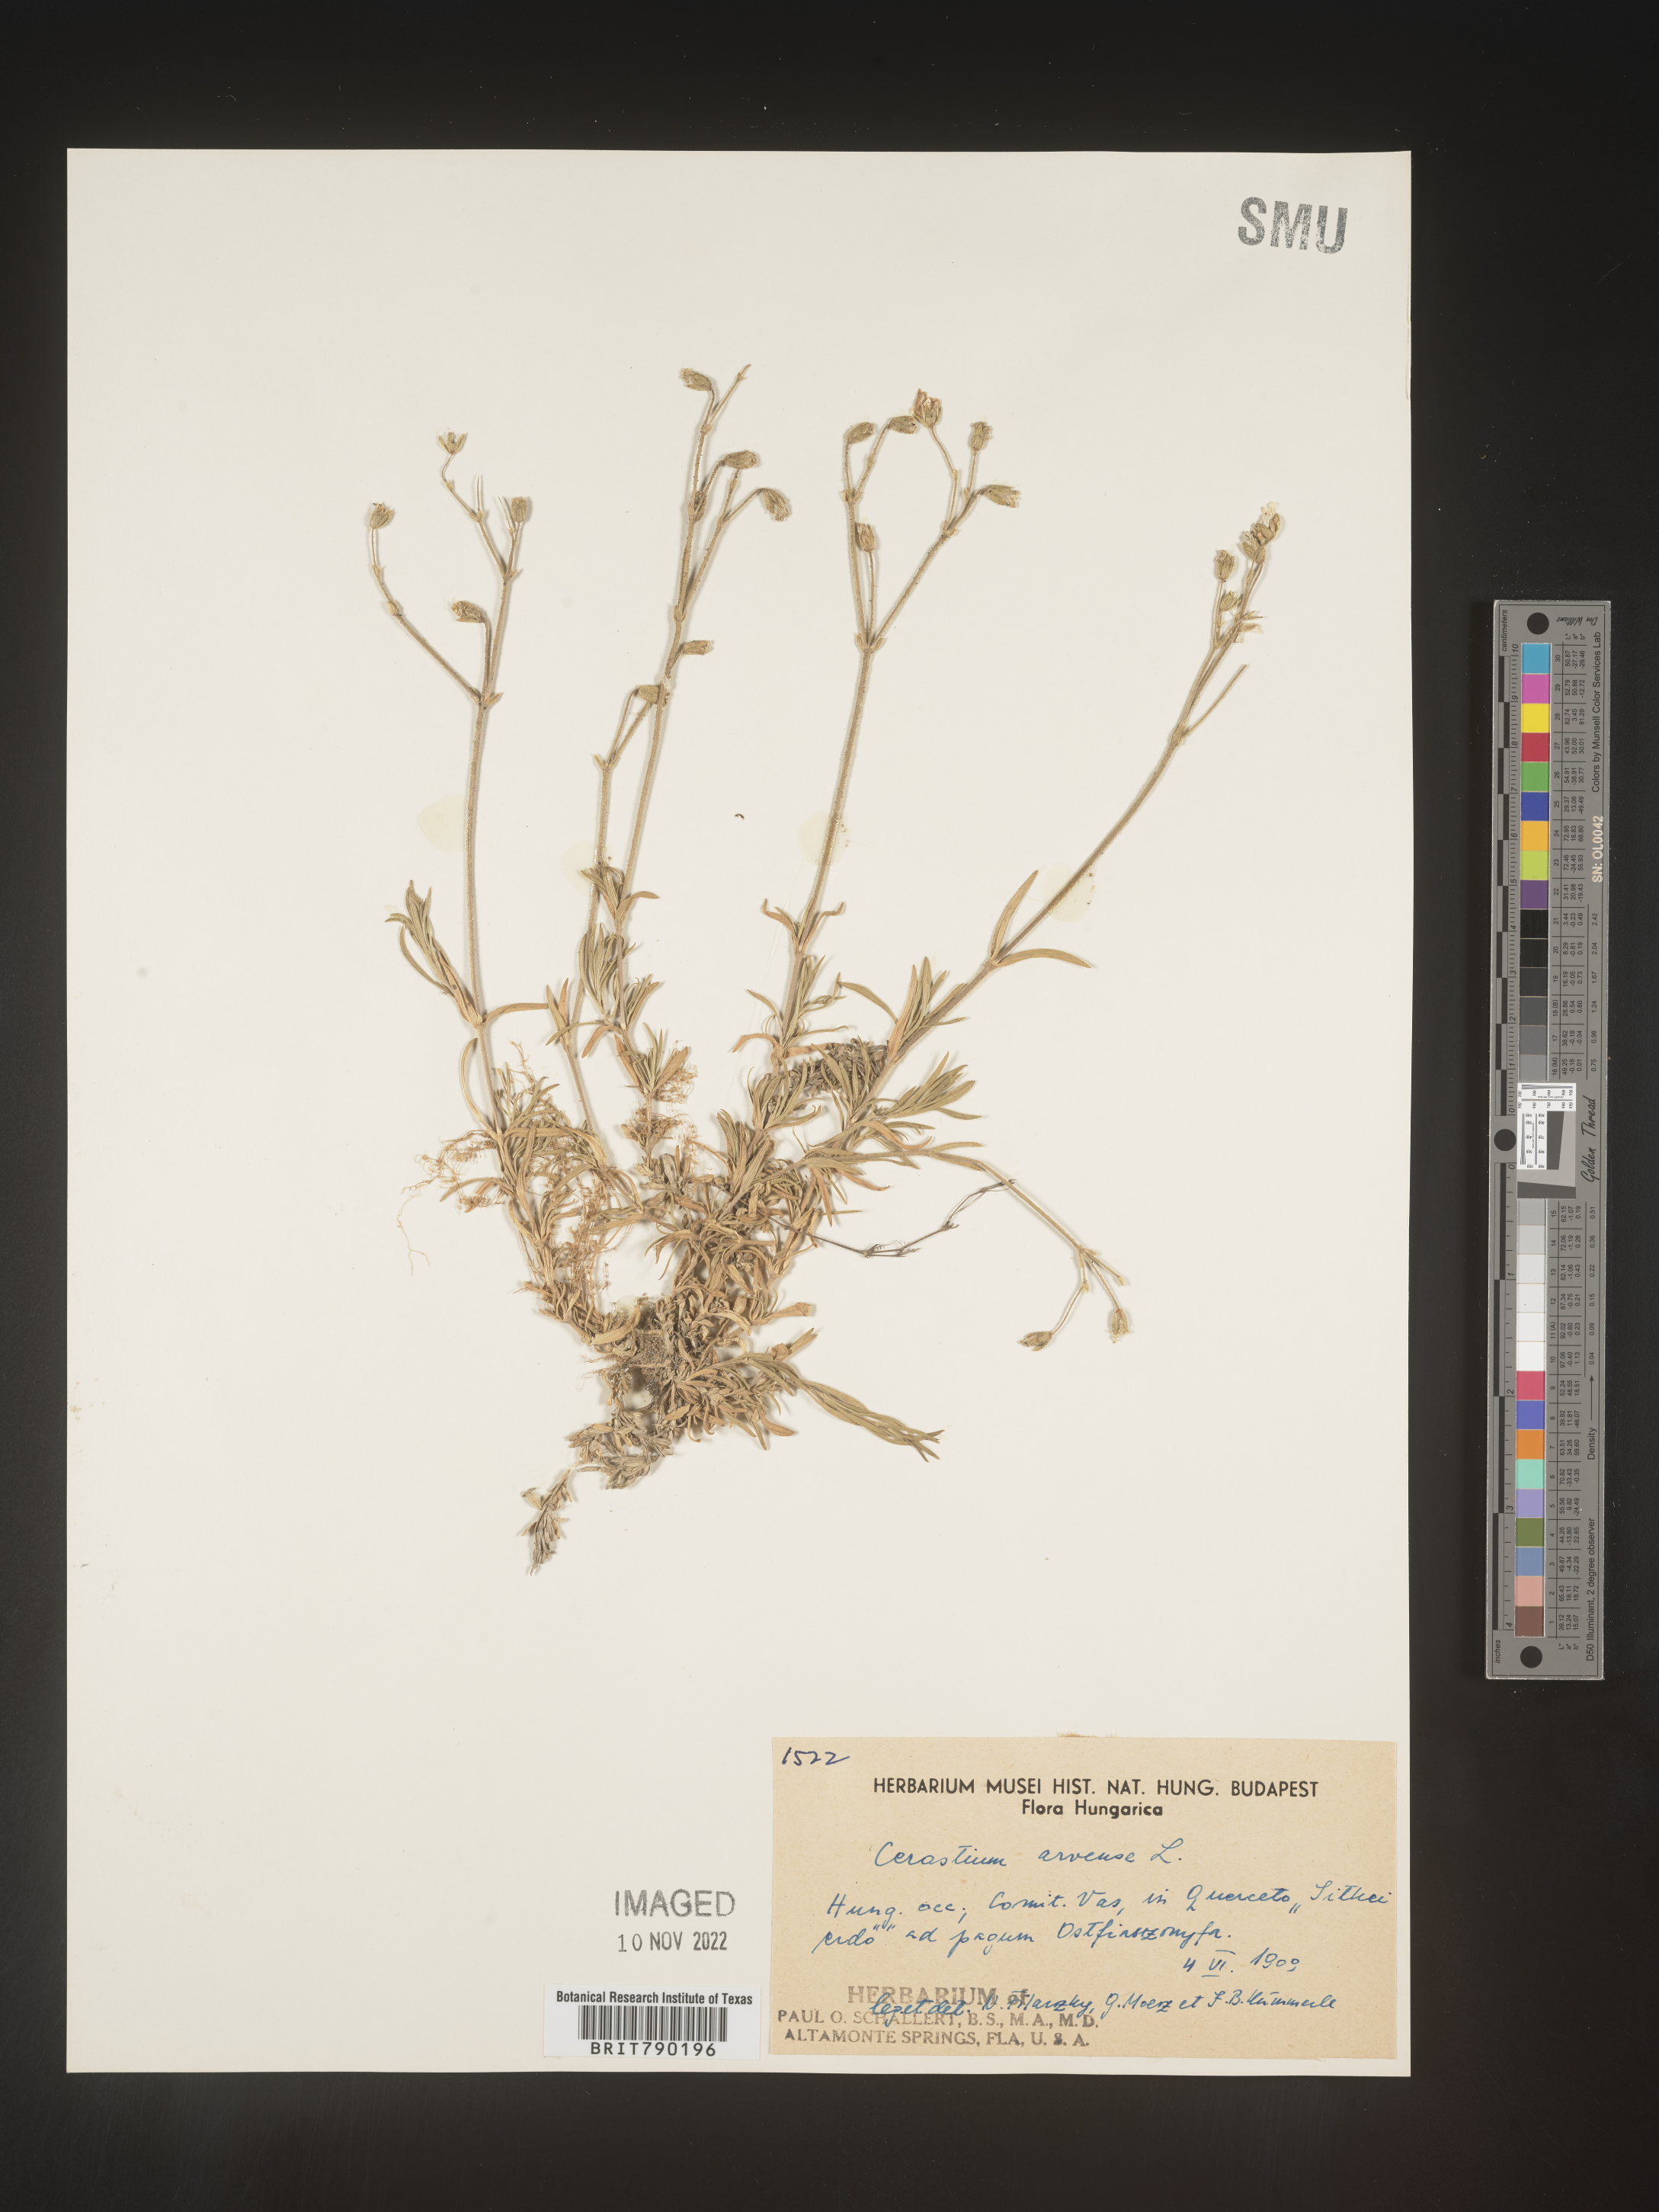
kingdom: Plantae
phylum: Tracheophyta
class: Magnoliopsida
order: Caryophyllales
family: Caryophyllaceae
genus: Cerastium
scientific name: Cerastium
